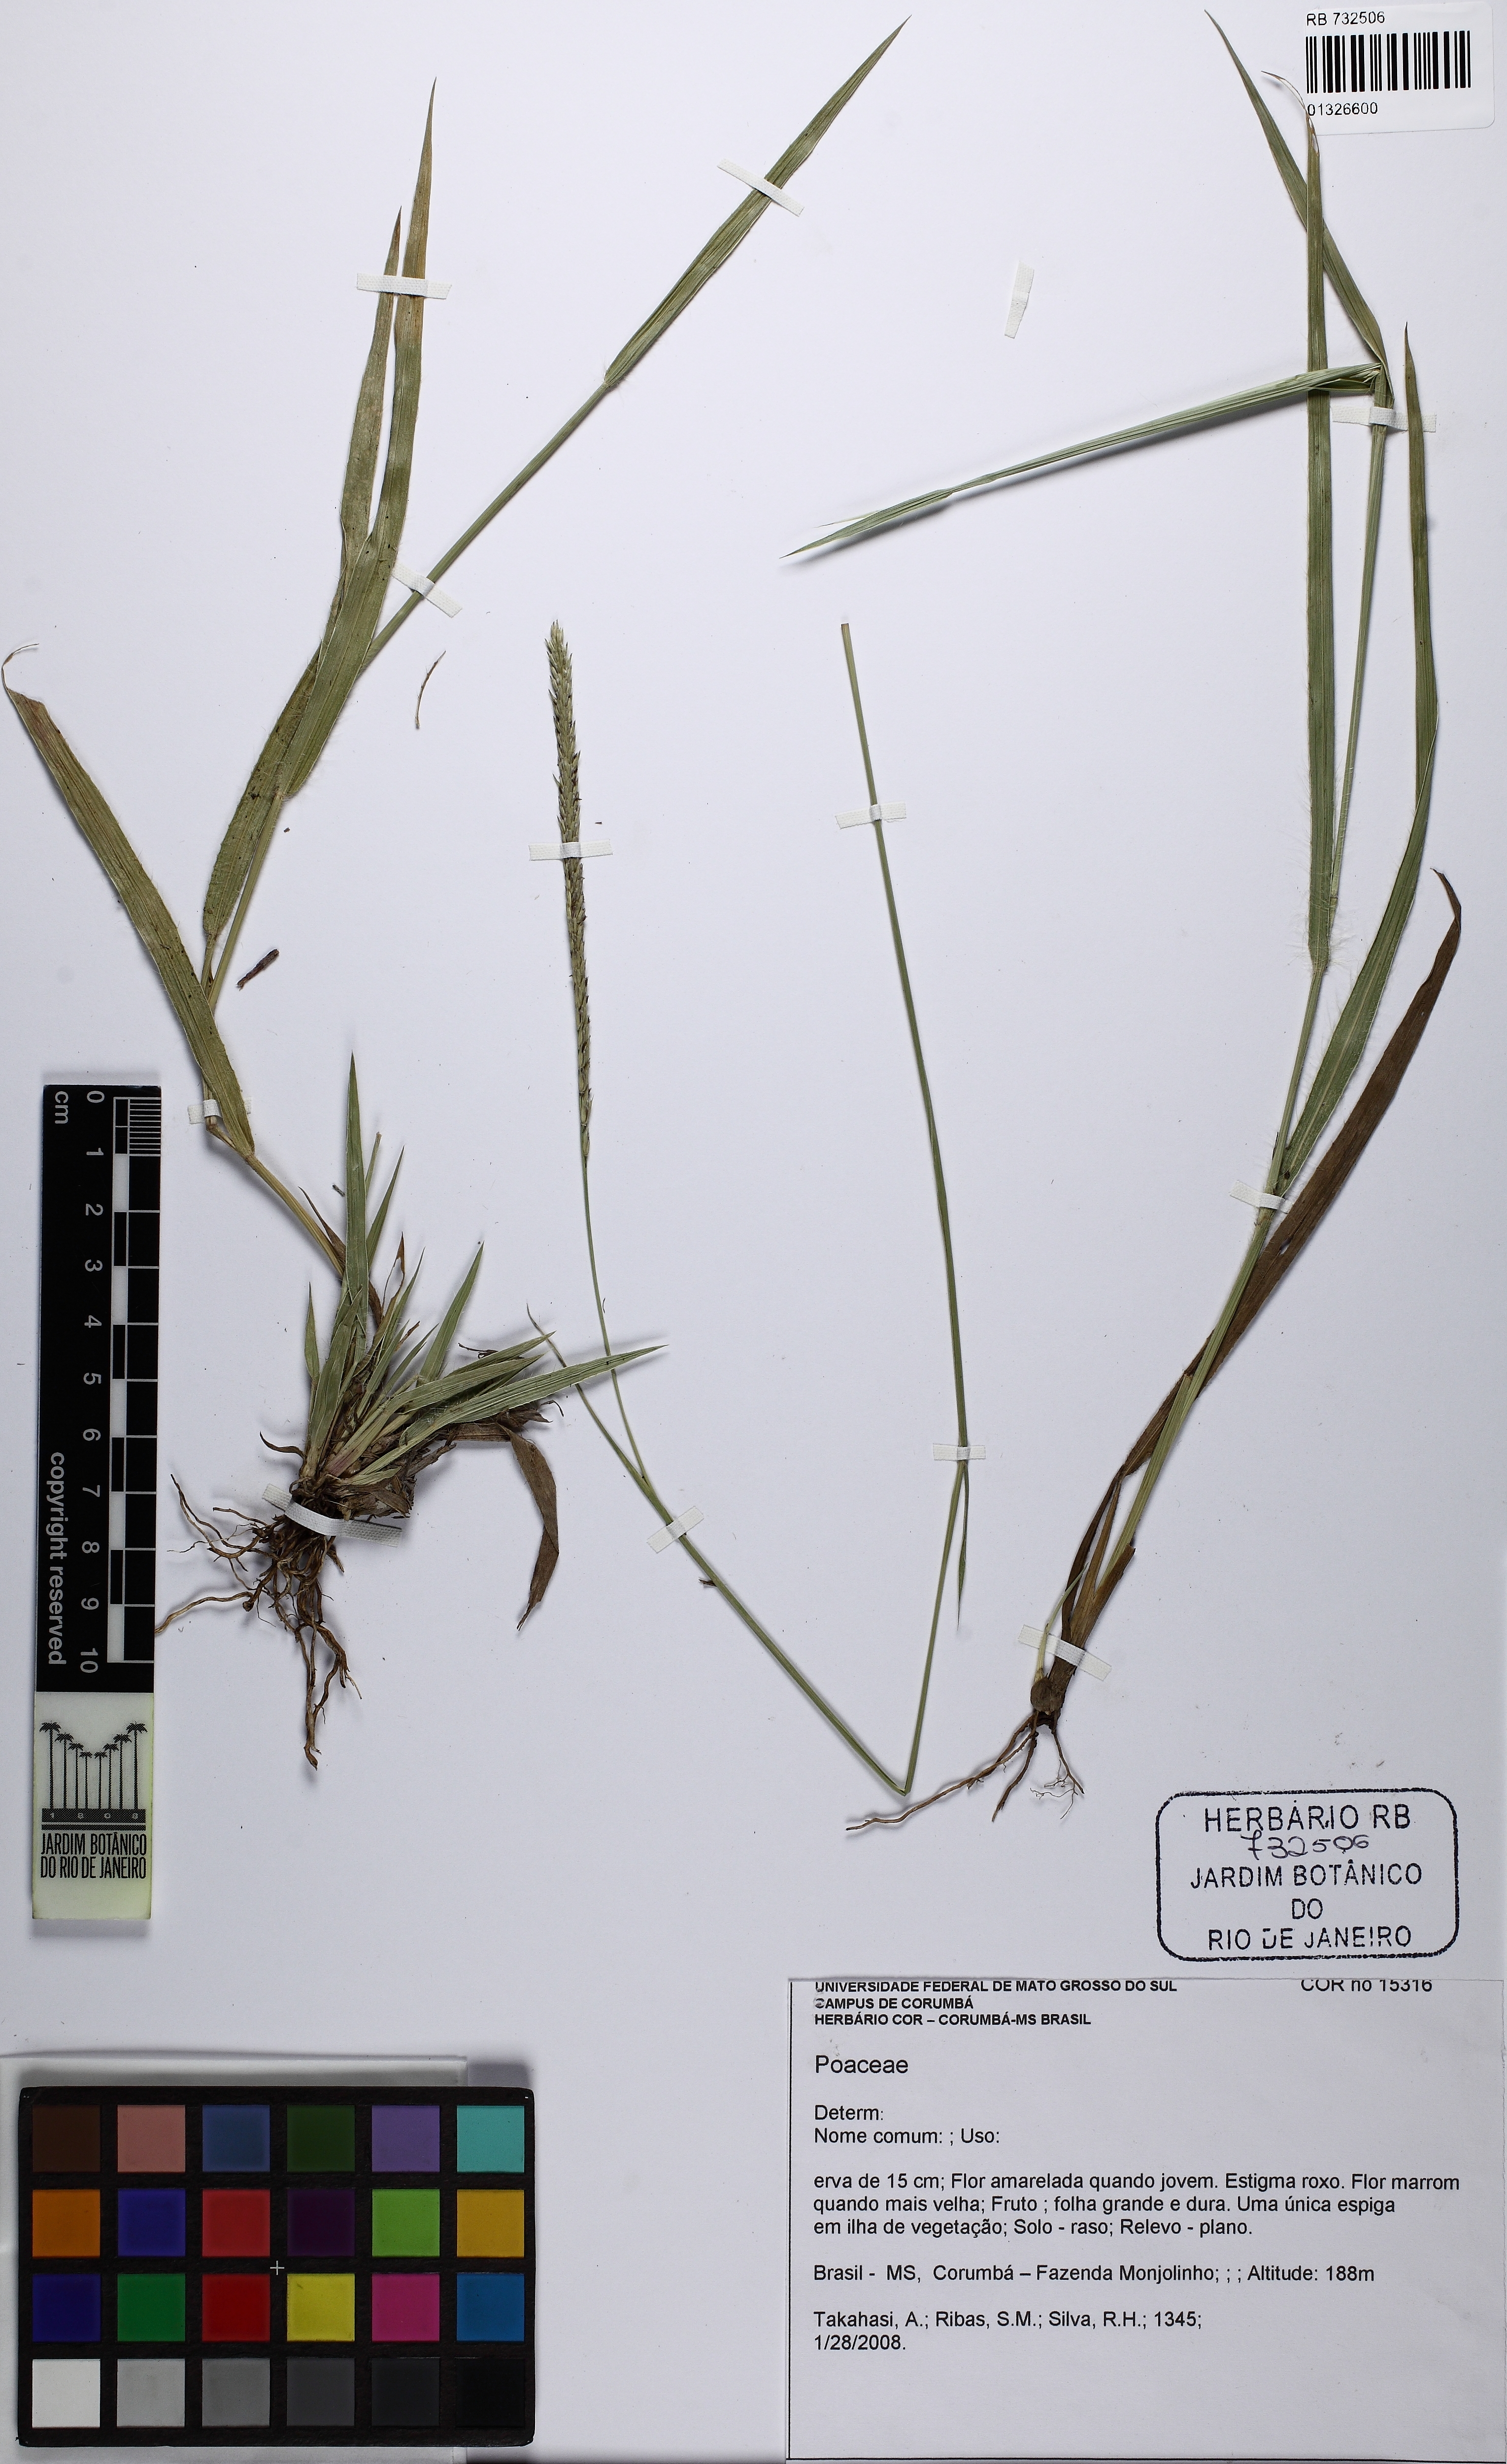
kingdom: Plantae
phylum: Tracheophyta
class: Liliopsida
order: Poales
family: Poaceae
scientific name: Poaceae
